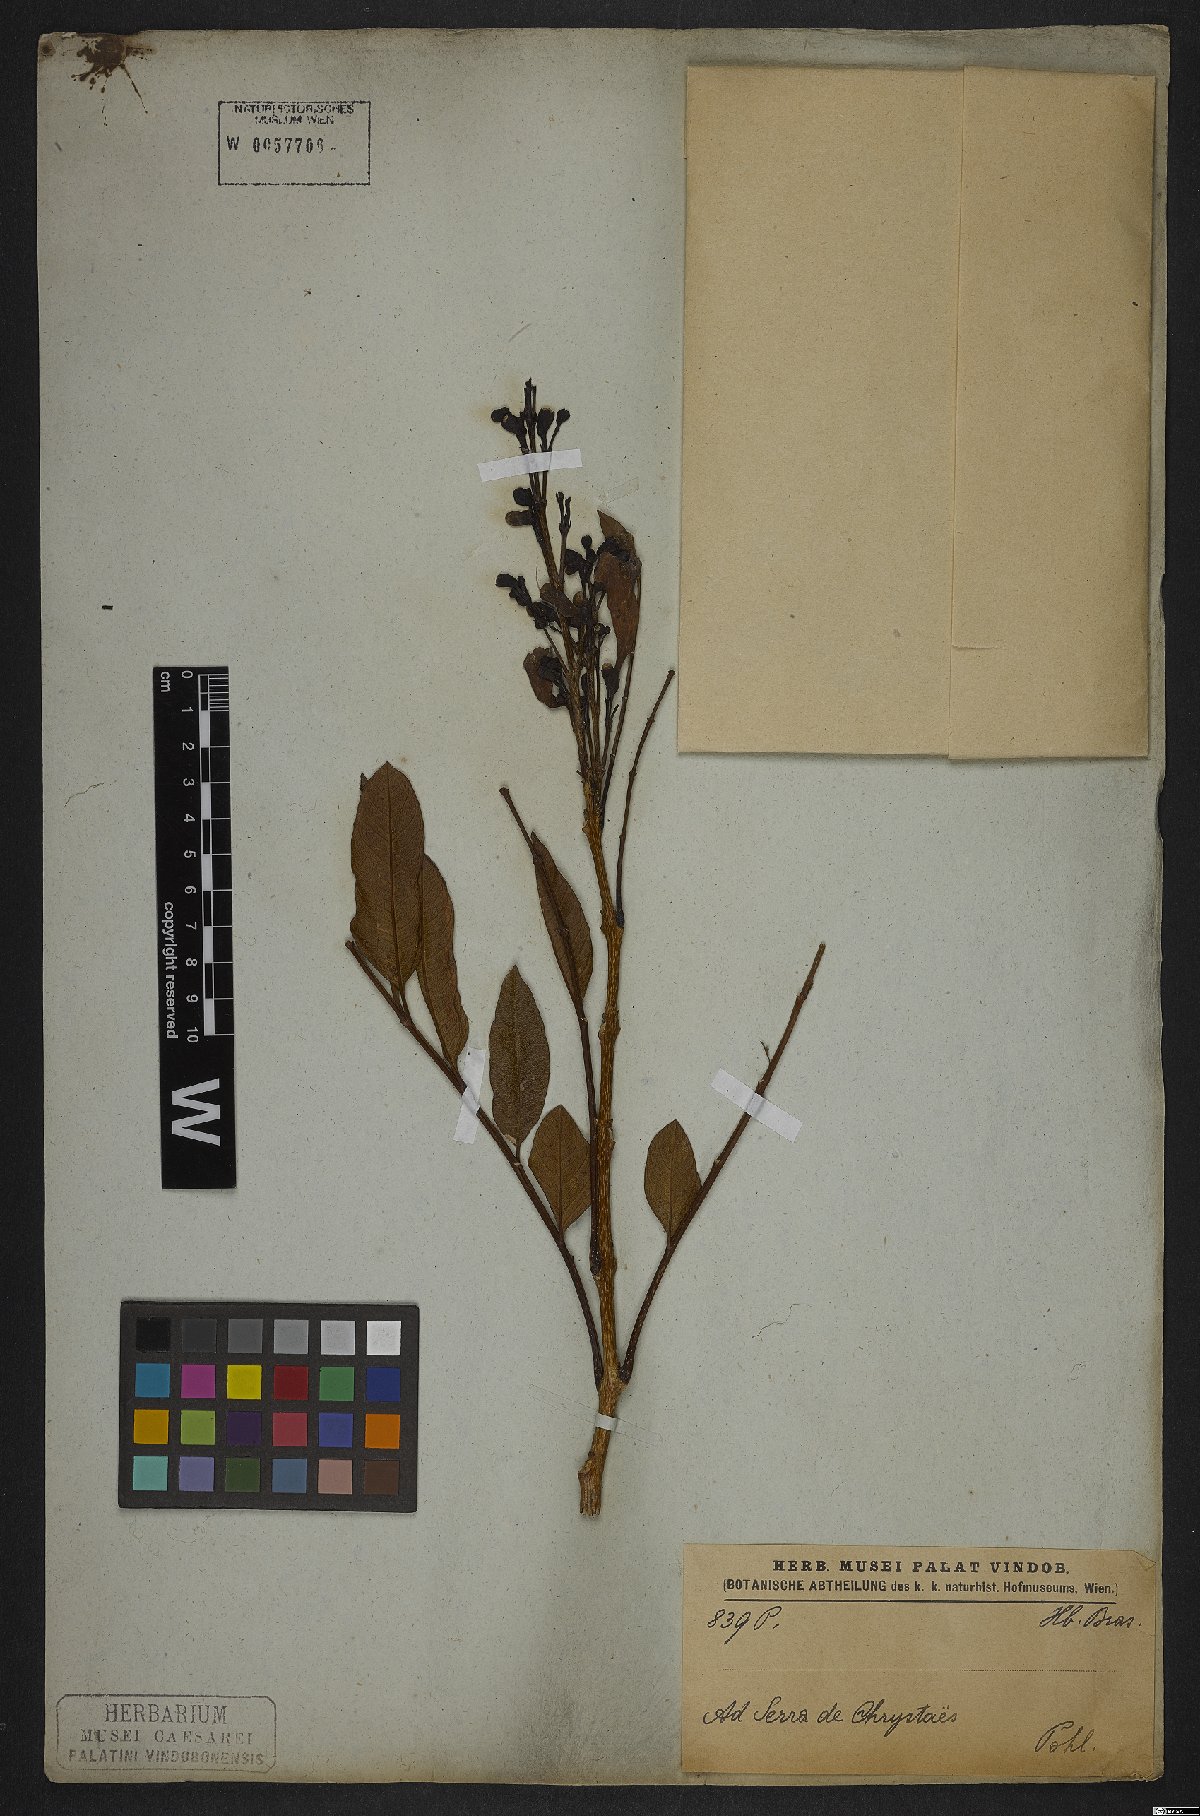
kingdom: Plantae
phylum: Tracheophyta
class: Magnoliopsida
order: Lamiales
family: Bignoniaceae
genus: Jacaranda
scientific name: Jacaranda
